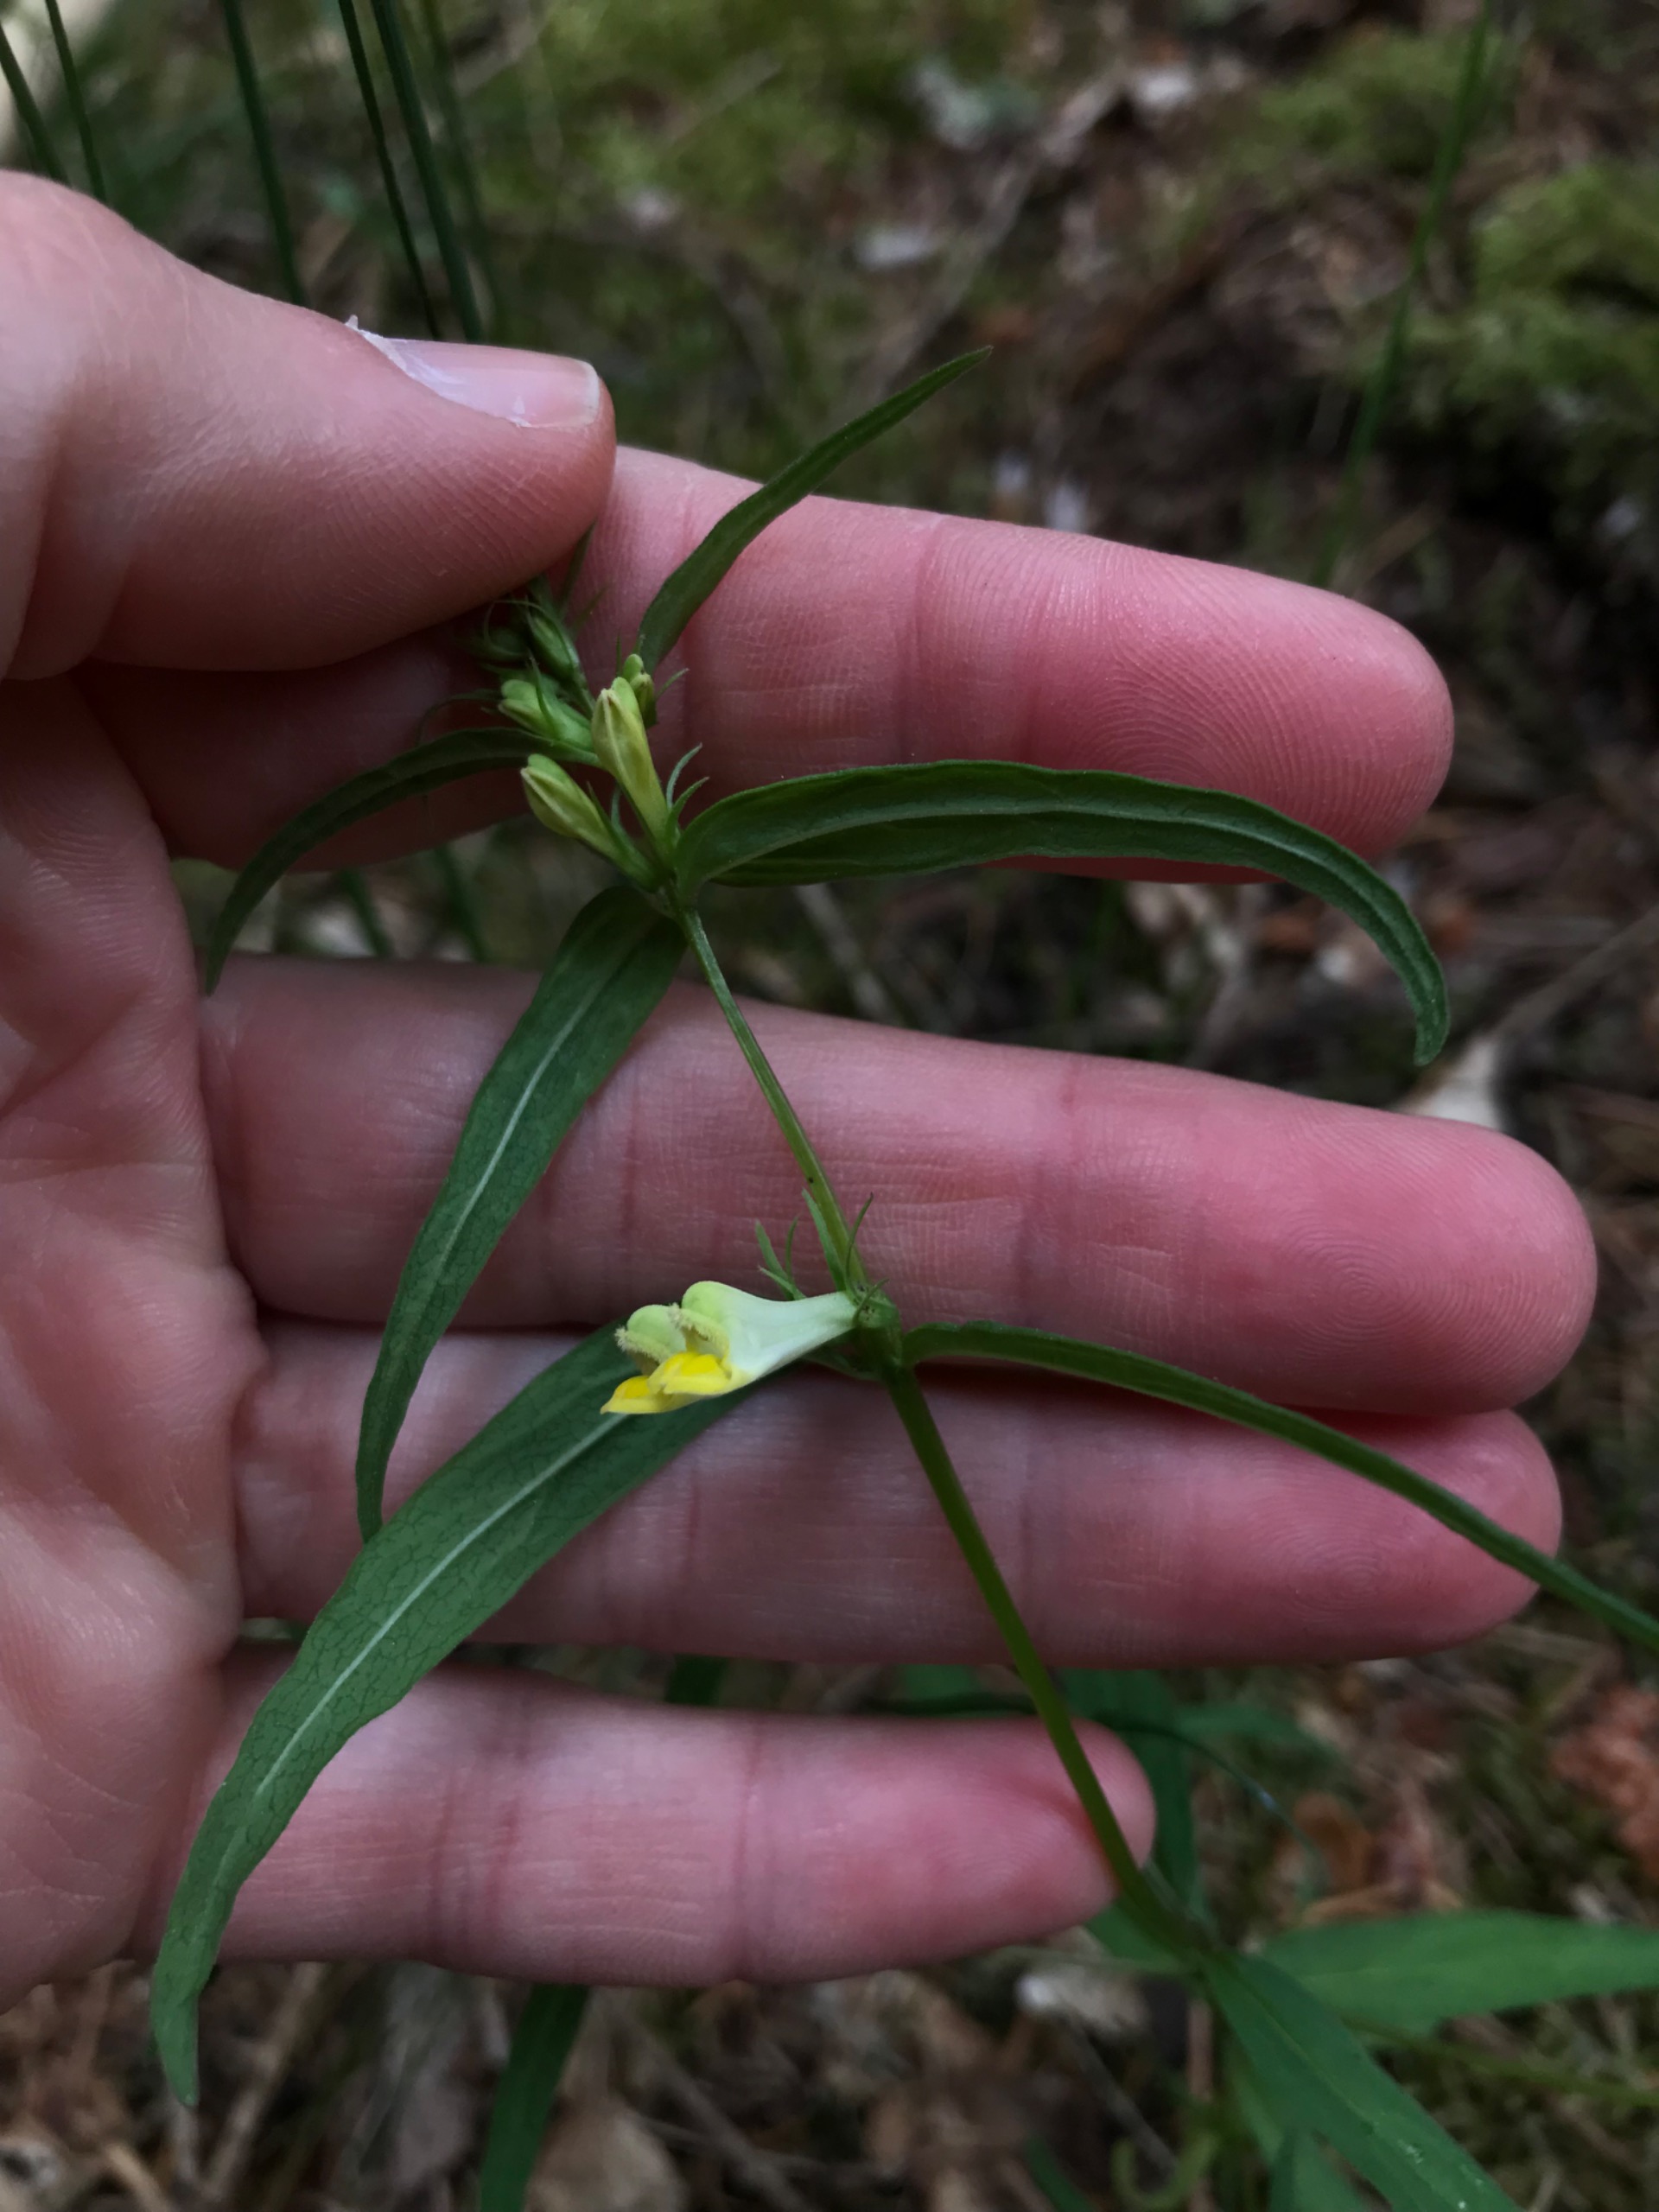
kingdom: Plantae
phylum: Tracheophyta
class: Magnoliopsida
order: Lamiales
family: Orobanchaceae
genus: Melampyrum
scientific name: Melampyrum pratense
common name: Almindelig kohvede
